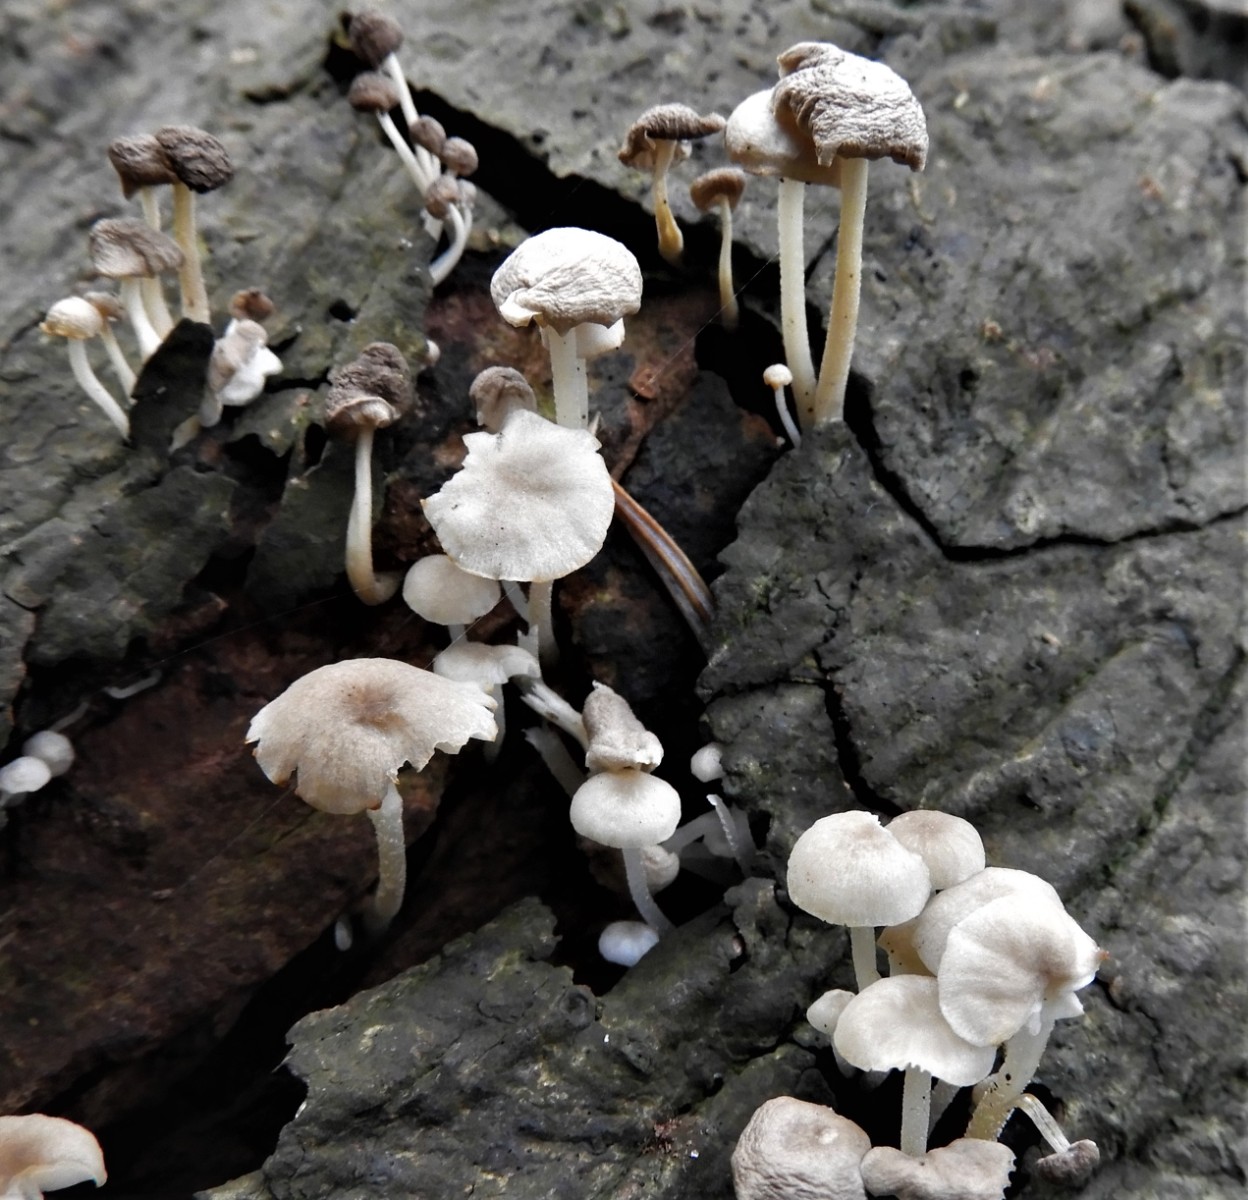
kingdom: Fungi
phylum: Basidiomycota
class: Agaricomycetes
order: Agaricales
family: Omphalotaceae
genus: Collybiopsis
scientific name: Collybiopsis ramealis
